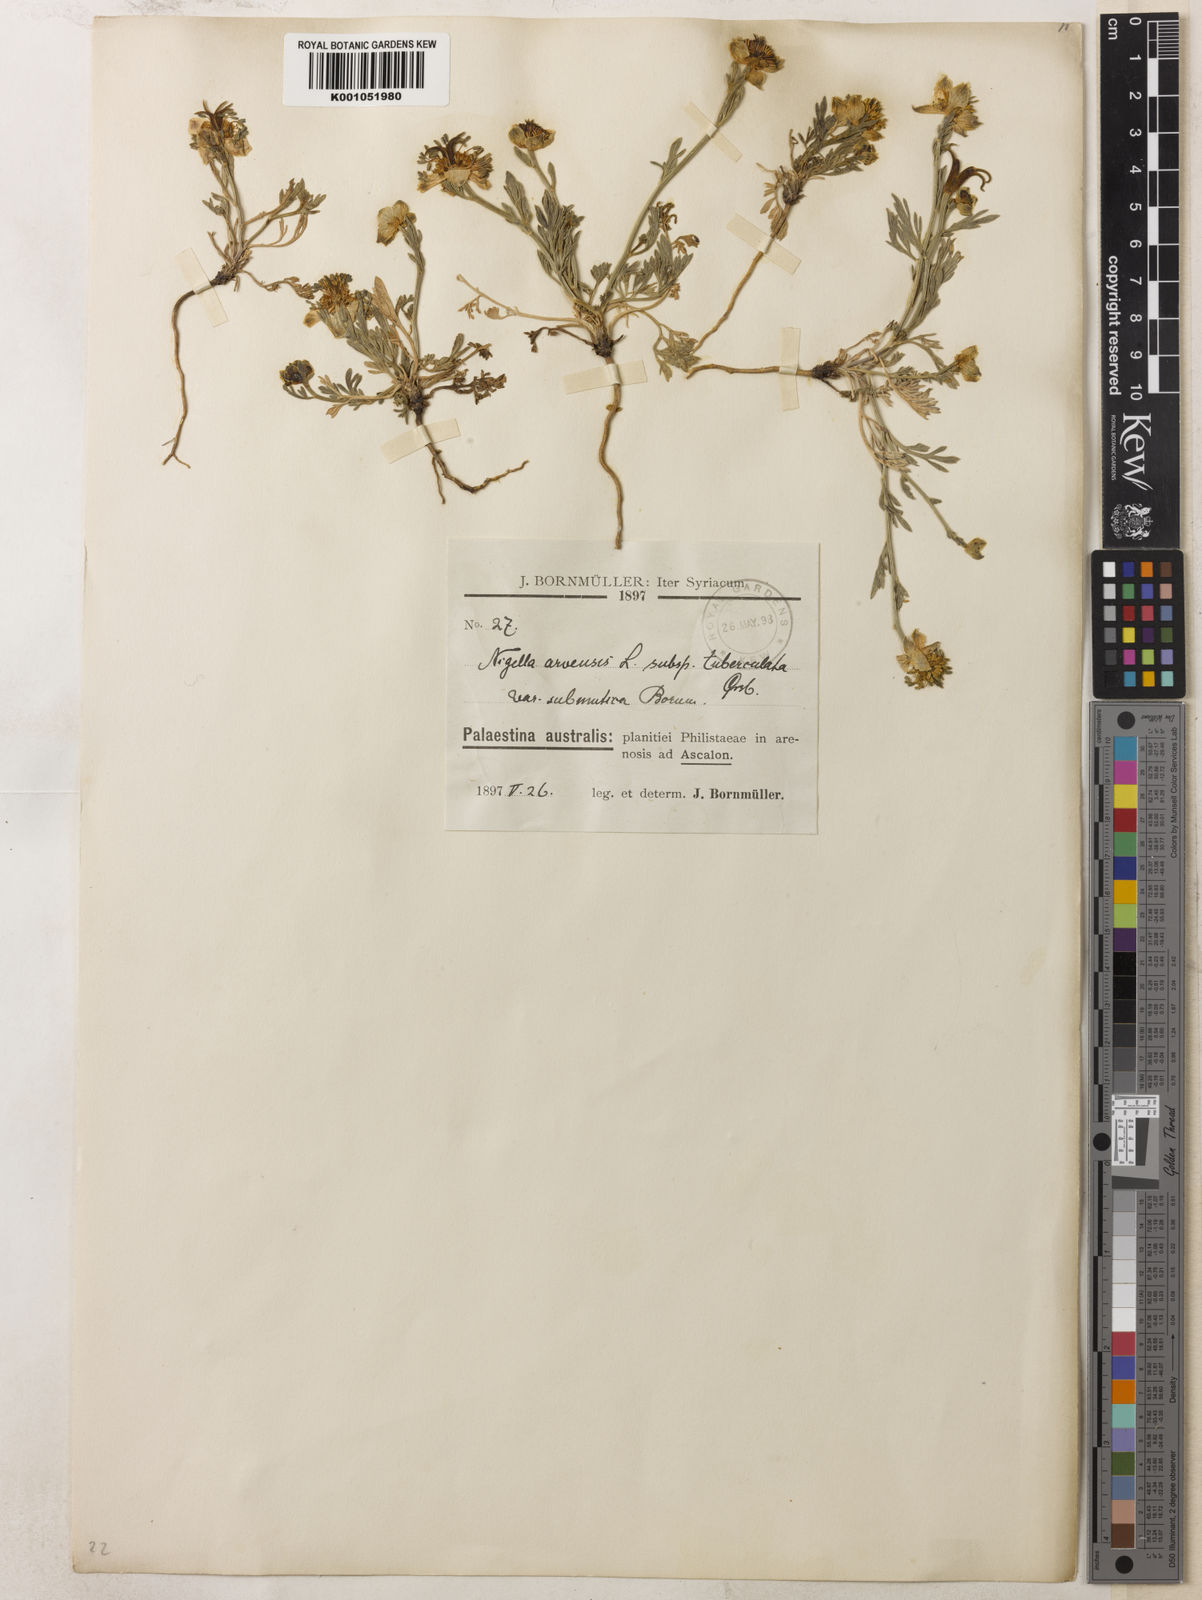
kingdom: Plantae
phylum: Tracheophyta
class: Magnoliopsida
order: Ranunculales
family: Ranunculaceae
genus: Nigella
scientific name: Nigella arvensis
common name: Wild fennel-flower
